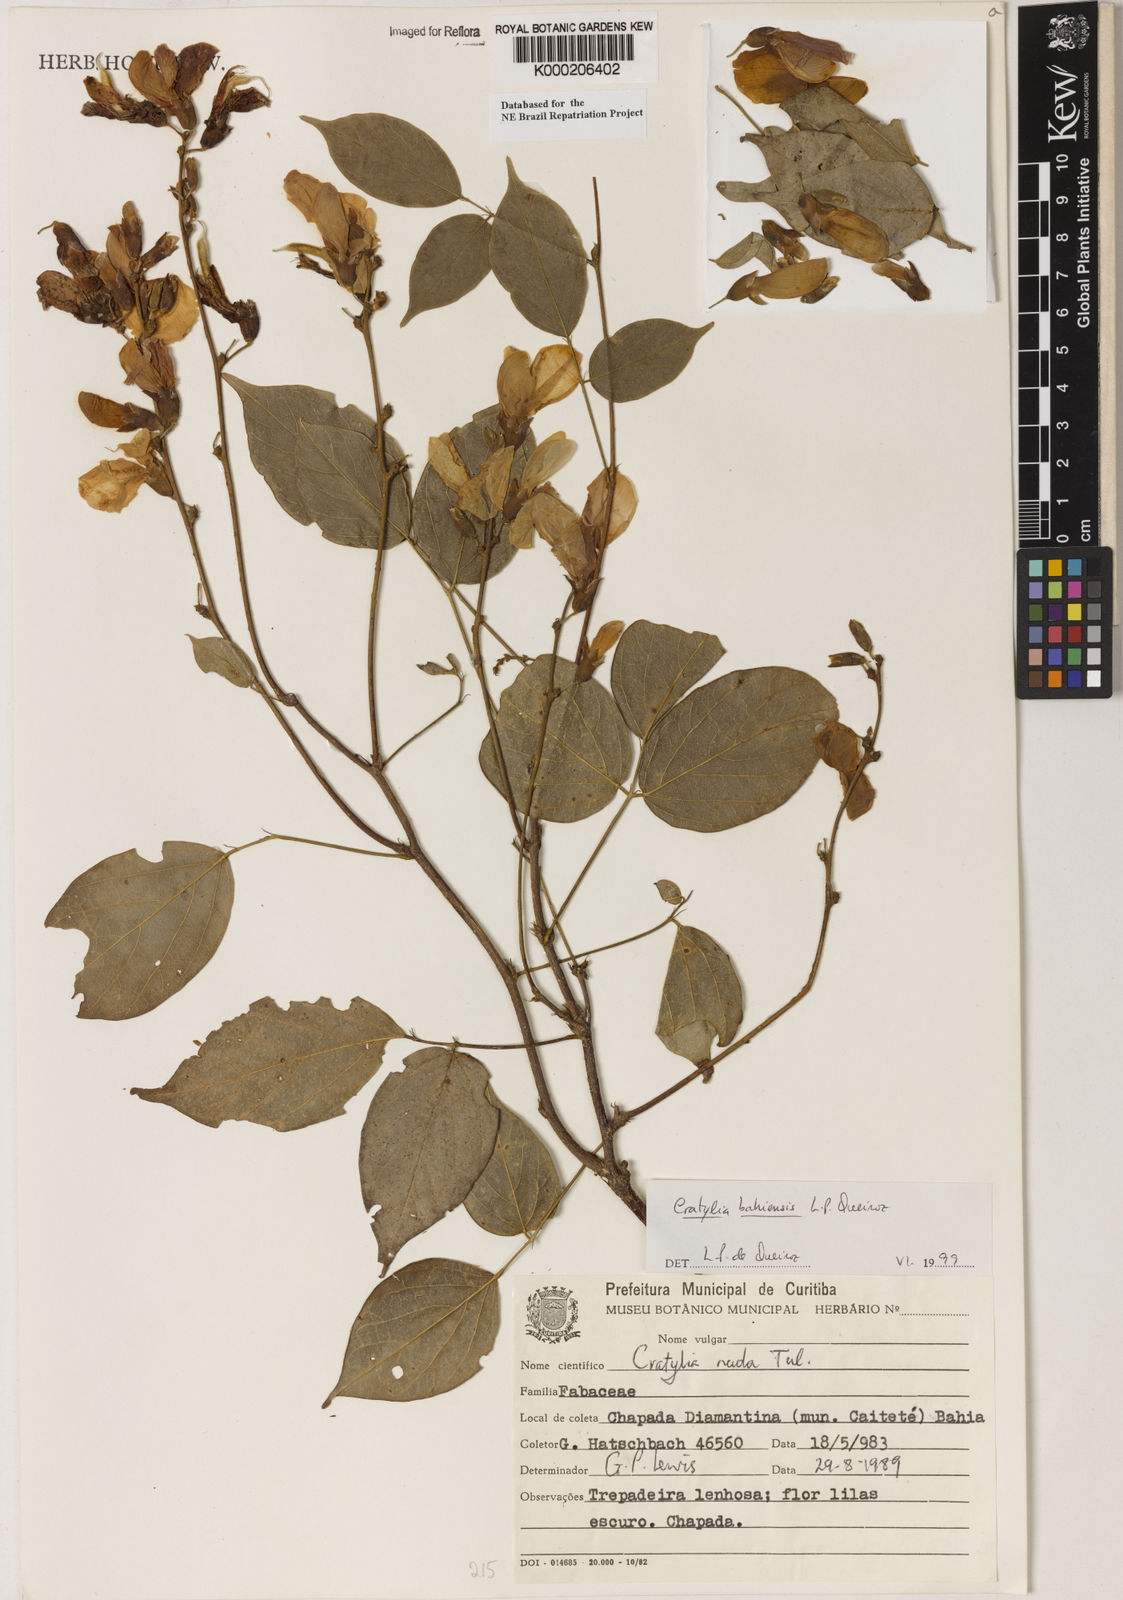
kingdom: Plantae
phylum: Tracheophyta
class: Magnoliopsida
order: Fabales
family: Fabaceae
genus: Cratylia
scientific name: Cratylia bahiensis
